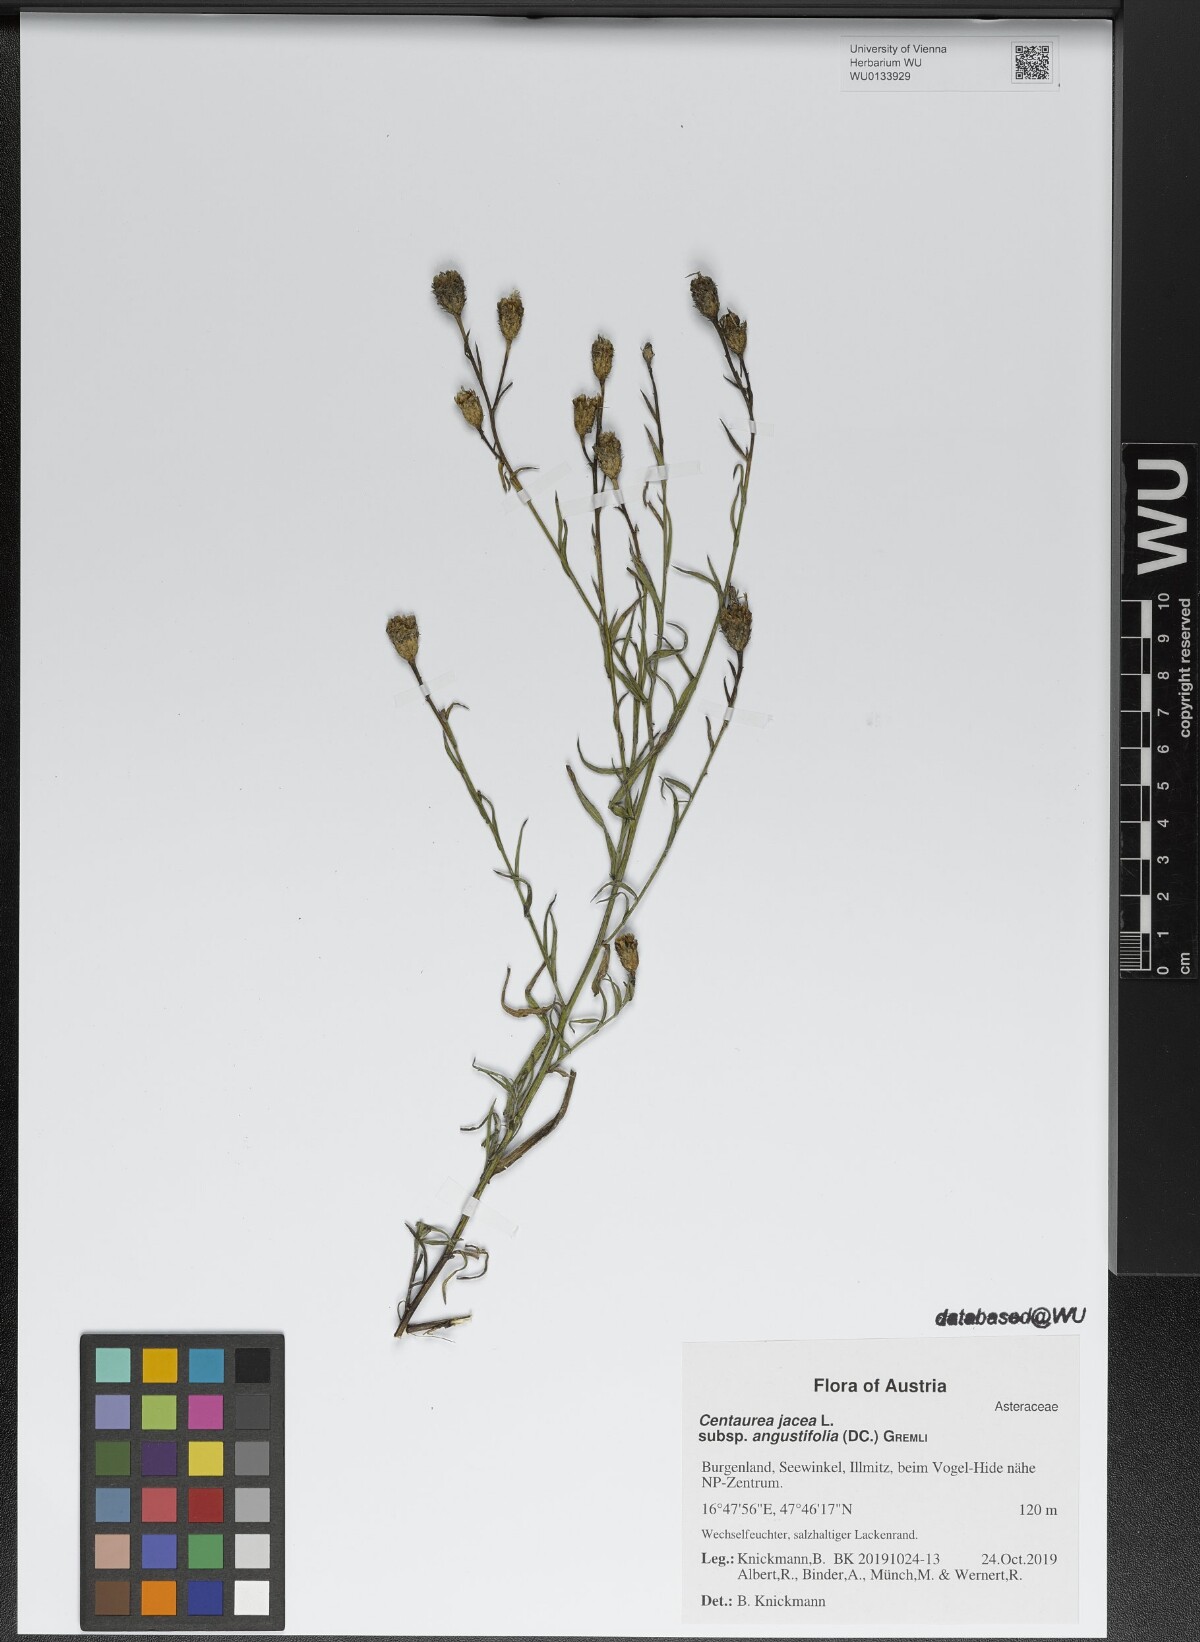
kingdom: Plantae
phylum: Tracheophyta
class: Magnoliopsida
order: Asterales
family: Asteraceae
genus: Centaurea
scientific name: Centaurea pannonica
